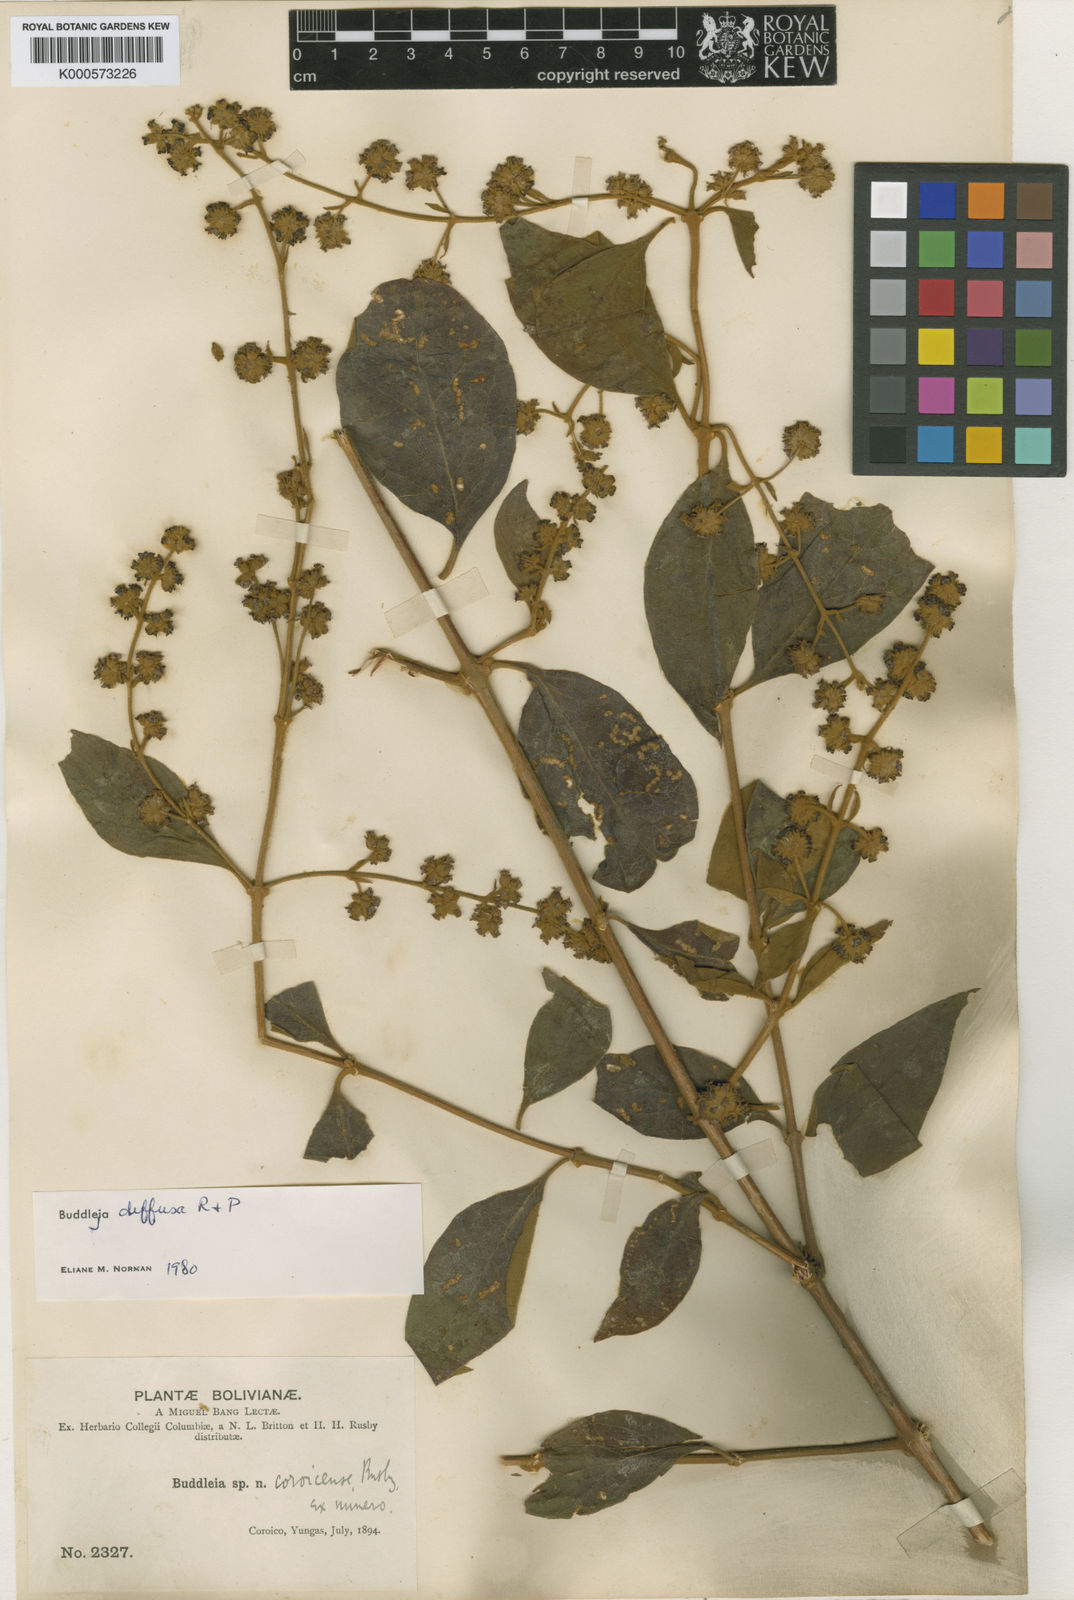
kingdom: Plantae
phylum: Tracheophyta
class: Magnoliopsida
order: Lamiales
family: Scrophulariaceae
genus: Buddleja
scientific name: Buddleja diffusa
